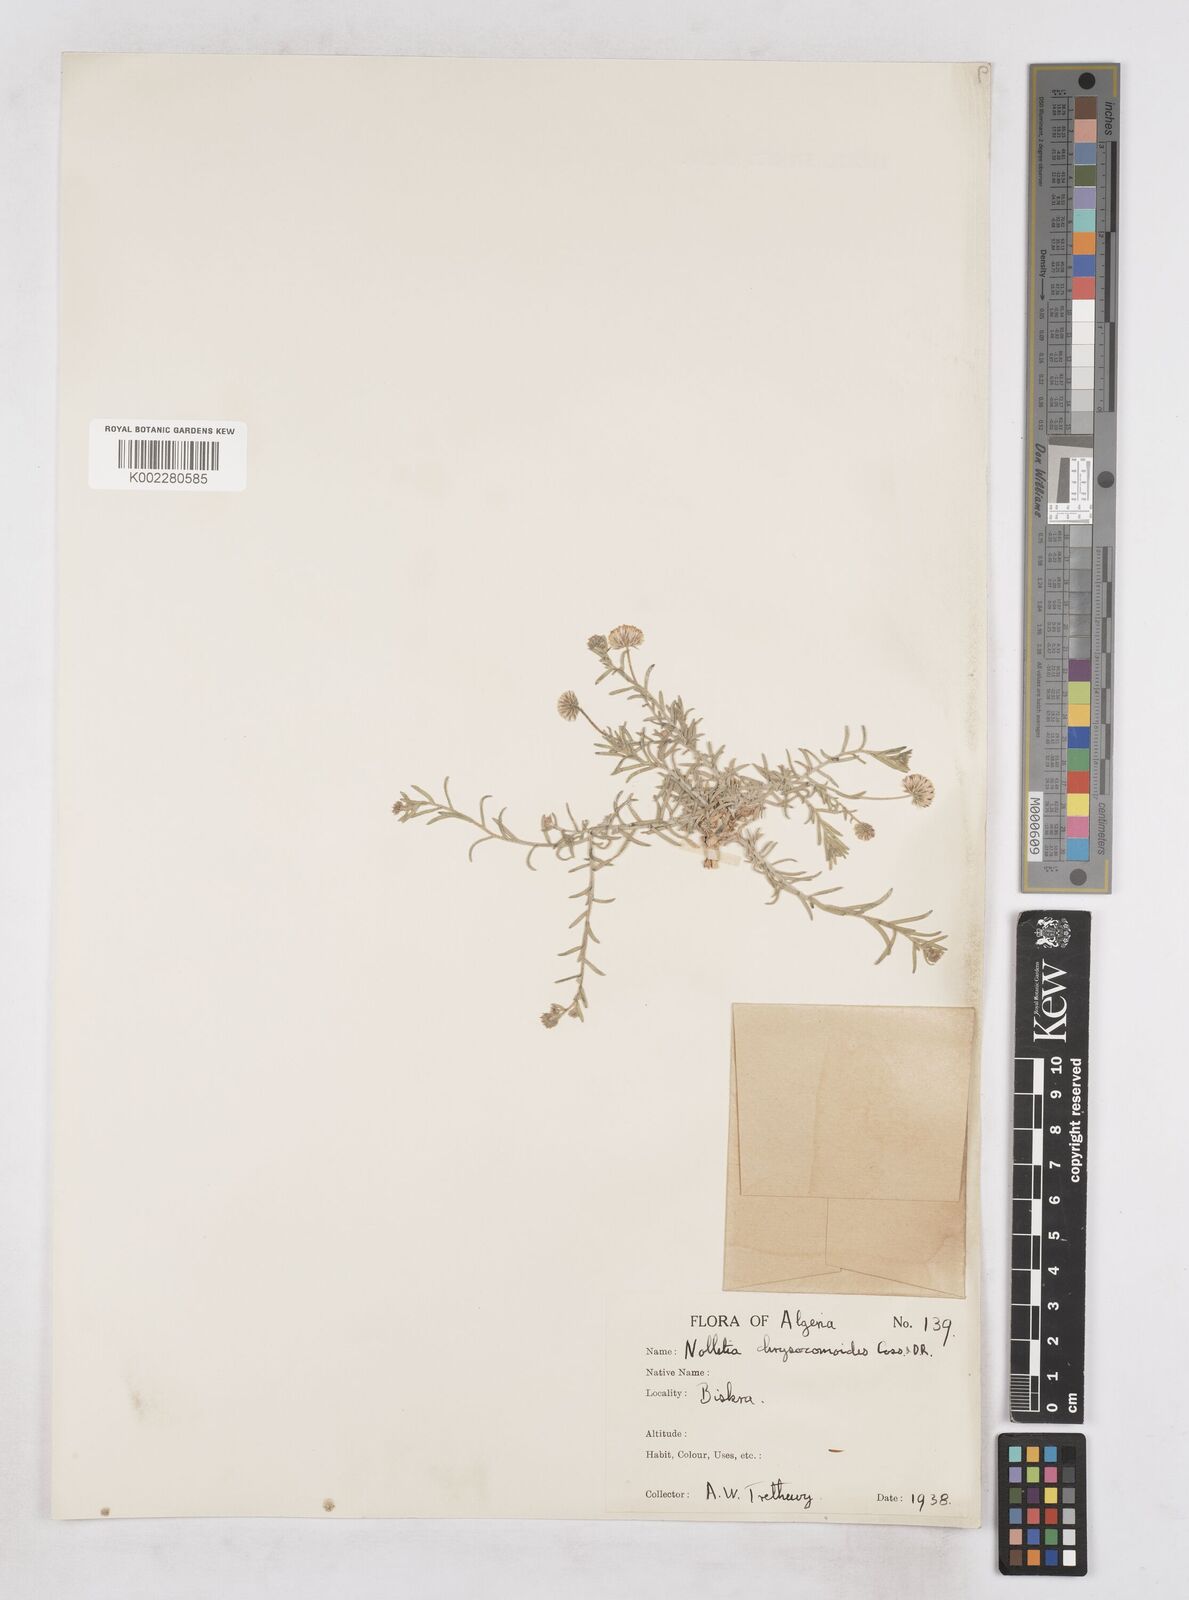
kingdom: Plantae
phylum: Tracheophyta
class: Magnoliopsida
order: Asterales
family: Asteraceae
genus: Nolletia
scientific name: Nolletia chrysocomoides
